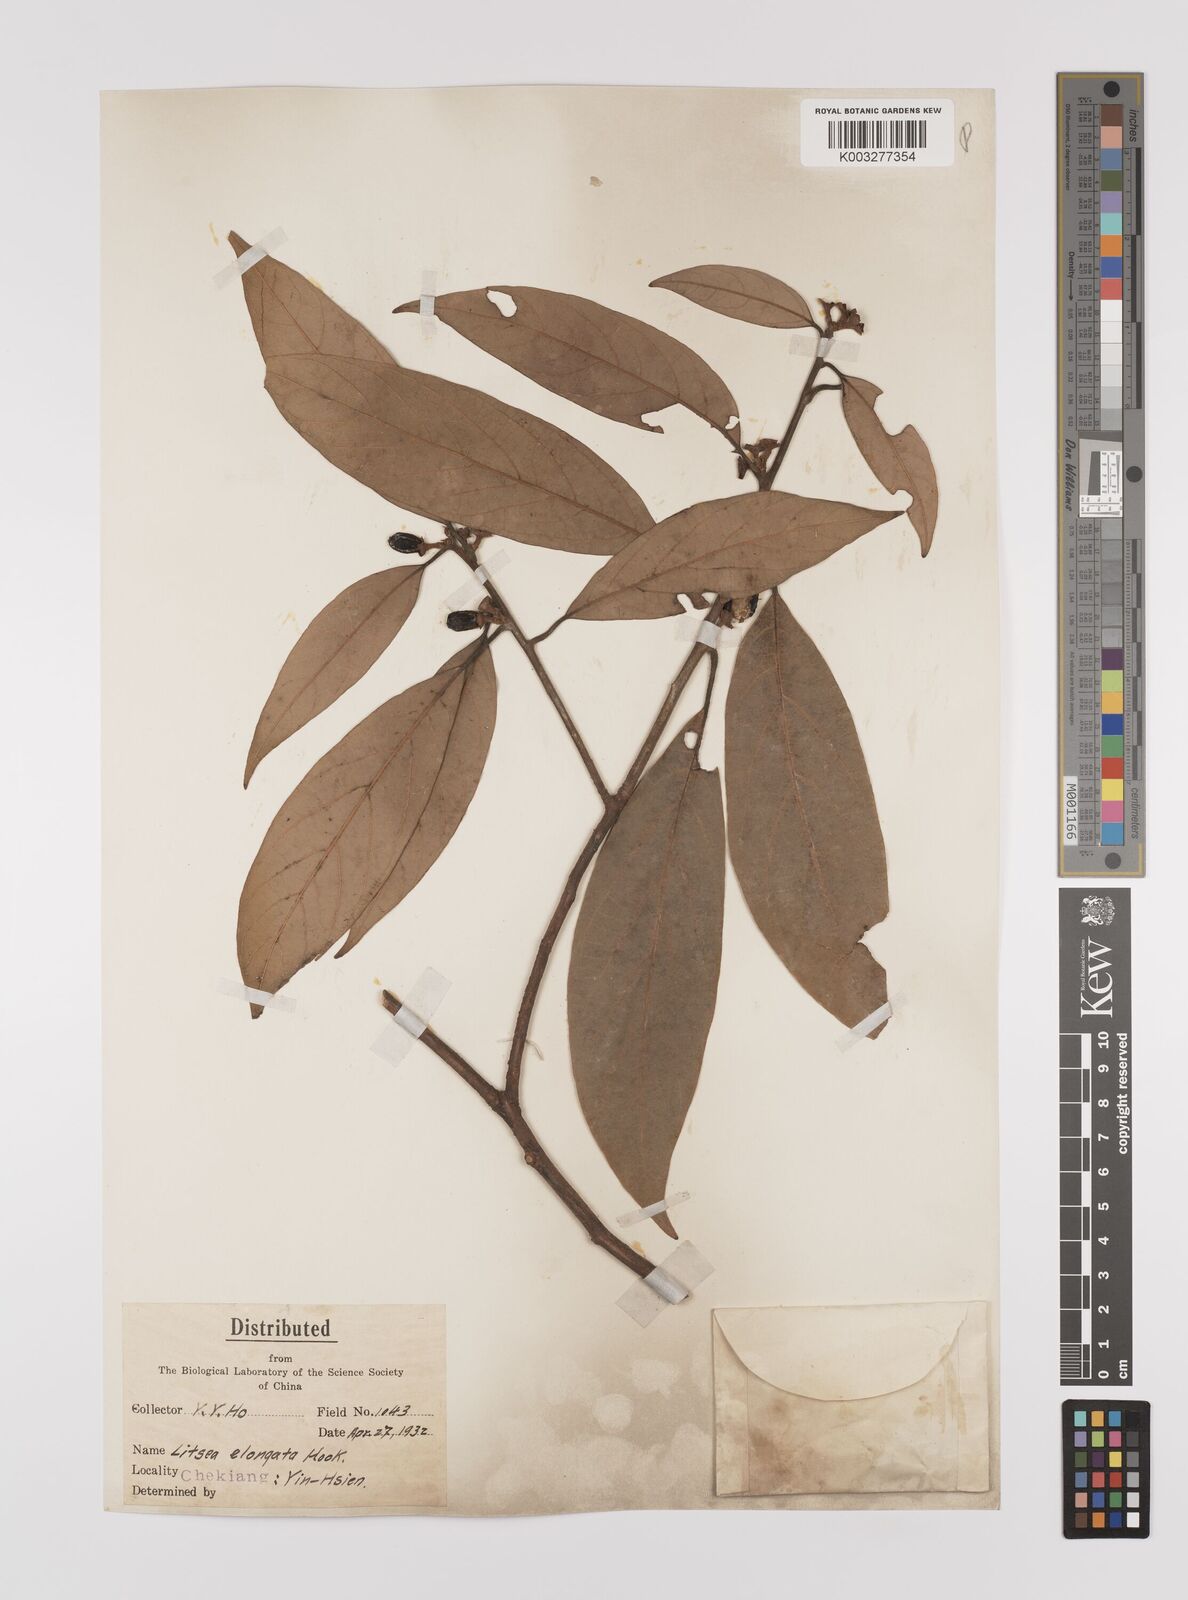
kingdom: Plantae
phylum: Tracheophyta
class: Magnoliopsida
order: Laurales
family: Lauraceae
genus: Litsea
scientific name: Litsea elongata
